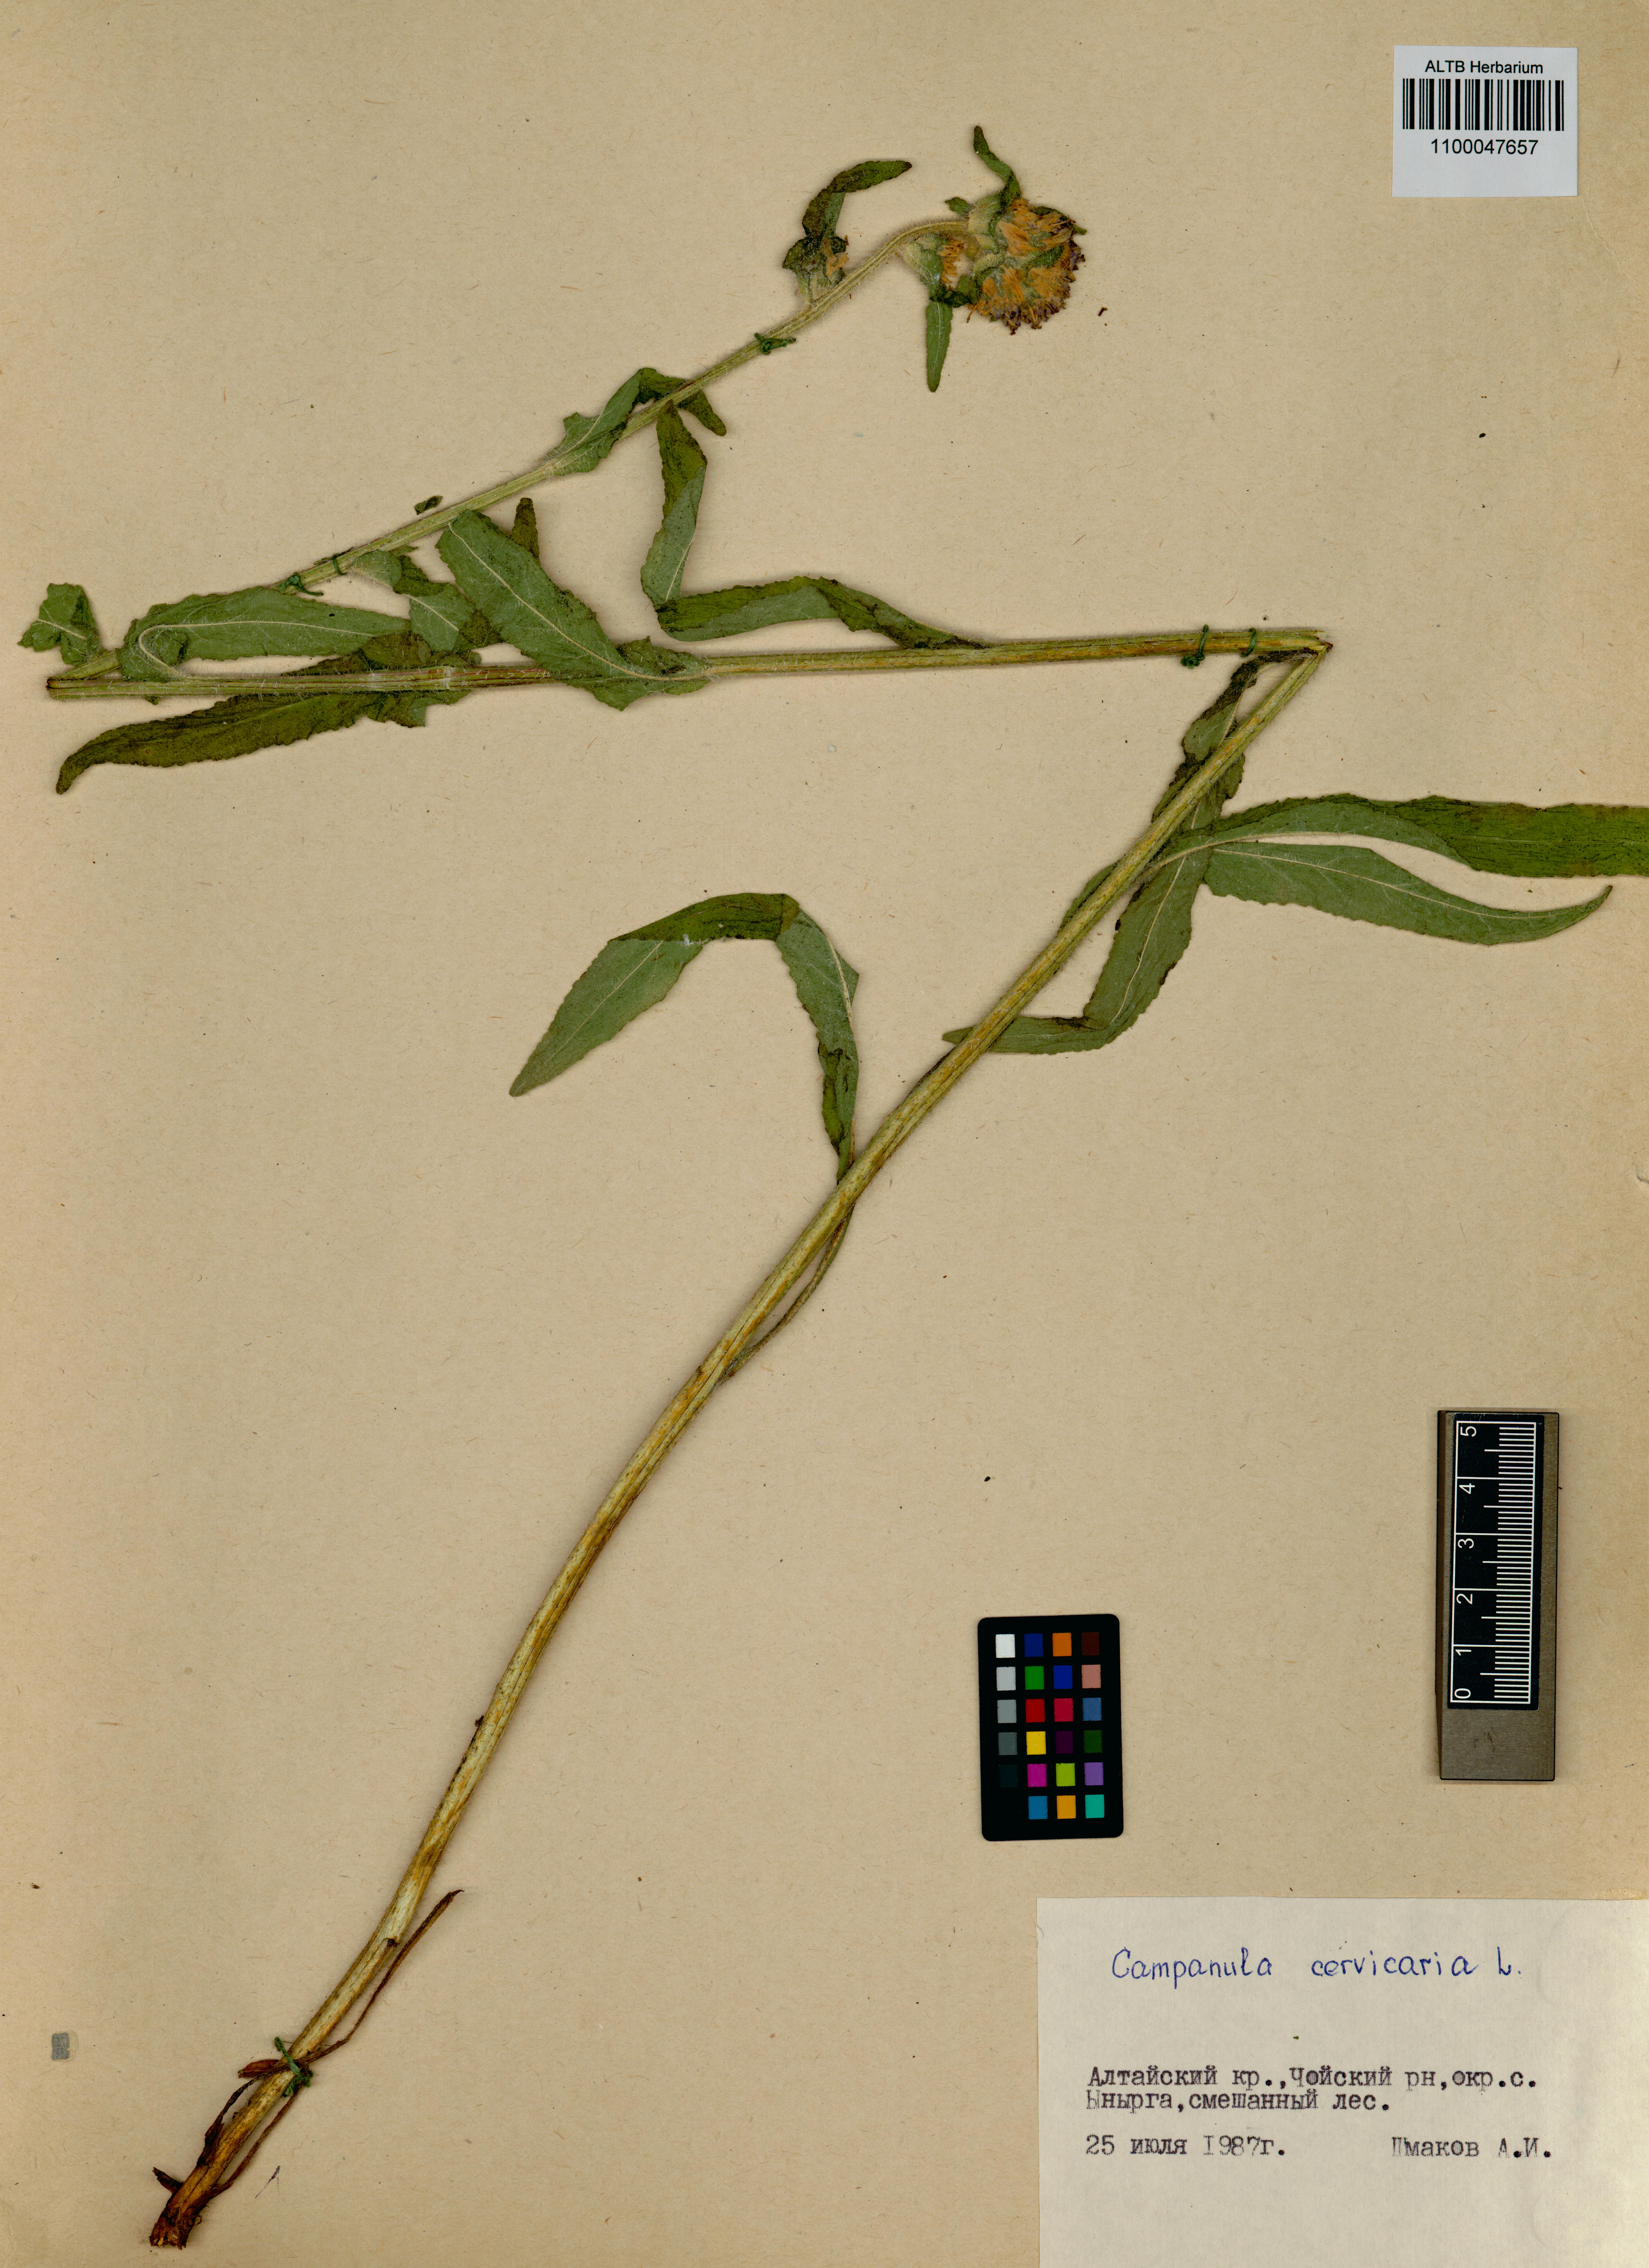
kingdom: Plantae
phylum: Tracheophyta
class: Magnoliopsida
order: Asterales
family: Campanulaceae
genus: Campanula
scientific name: Campanula cervicaria
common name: Bristly bellflower
